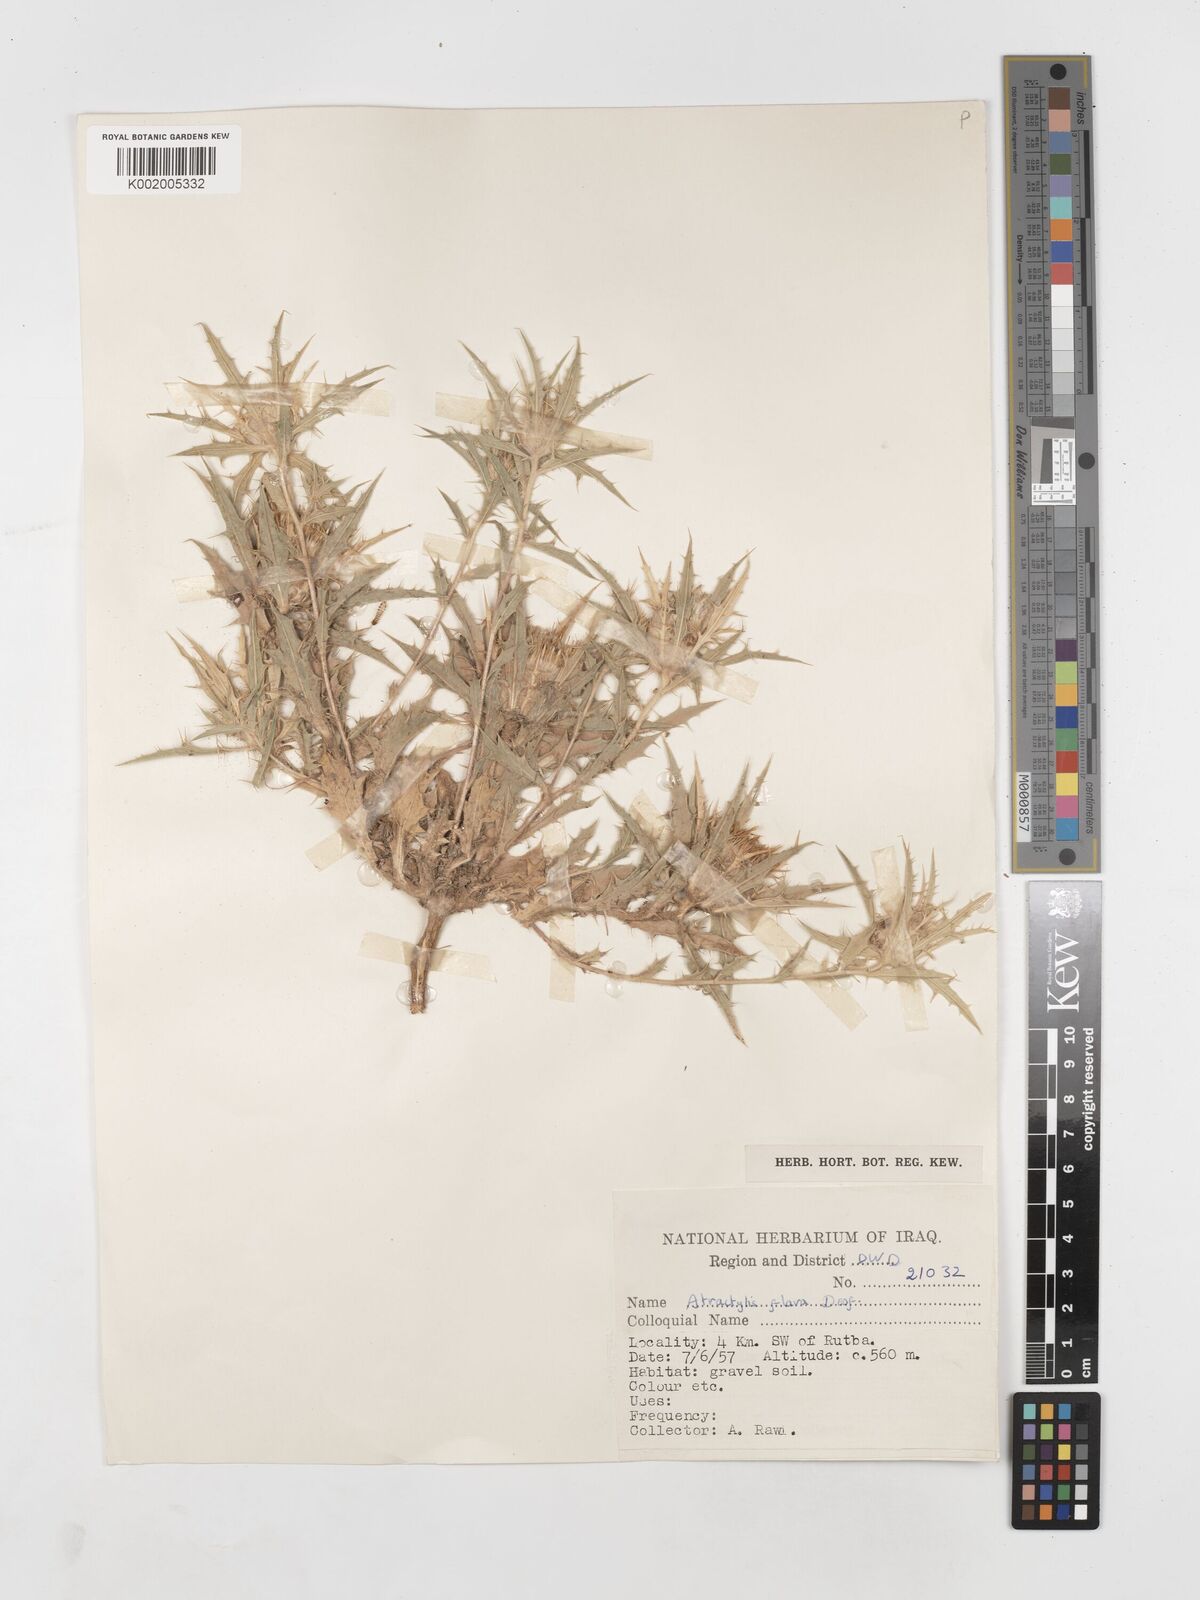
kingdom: Plantae
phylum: Tracheophyta
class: Magnoliopsida
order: Asterales
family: Asteraceae
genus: Atractylis
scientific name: Atractylis carduus
